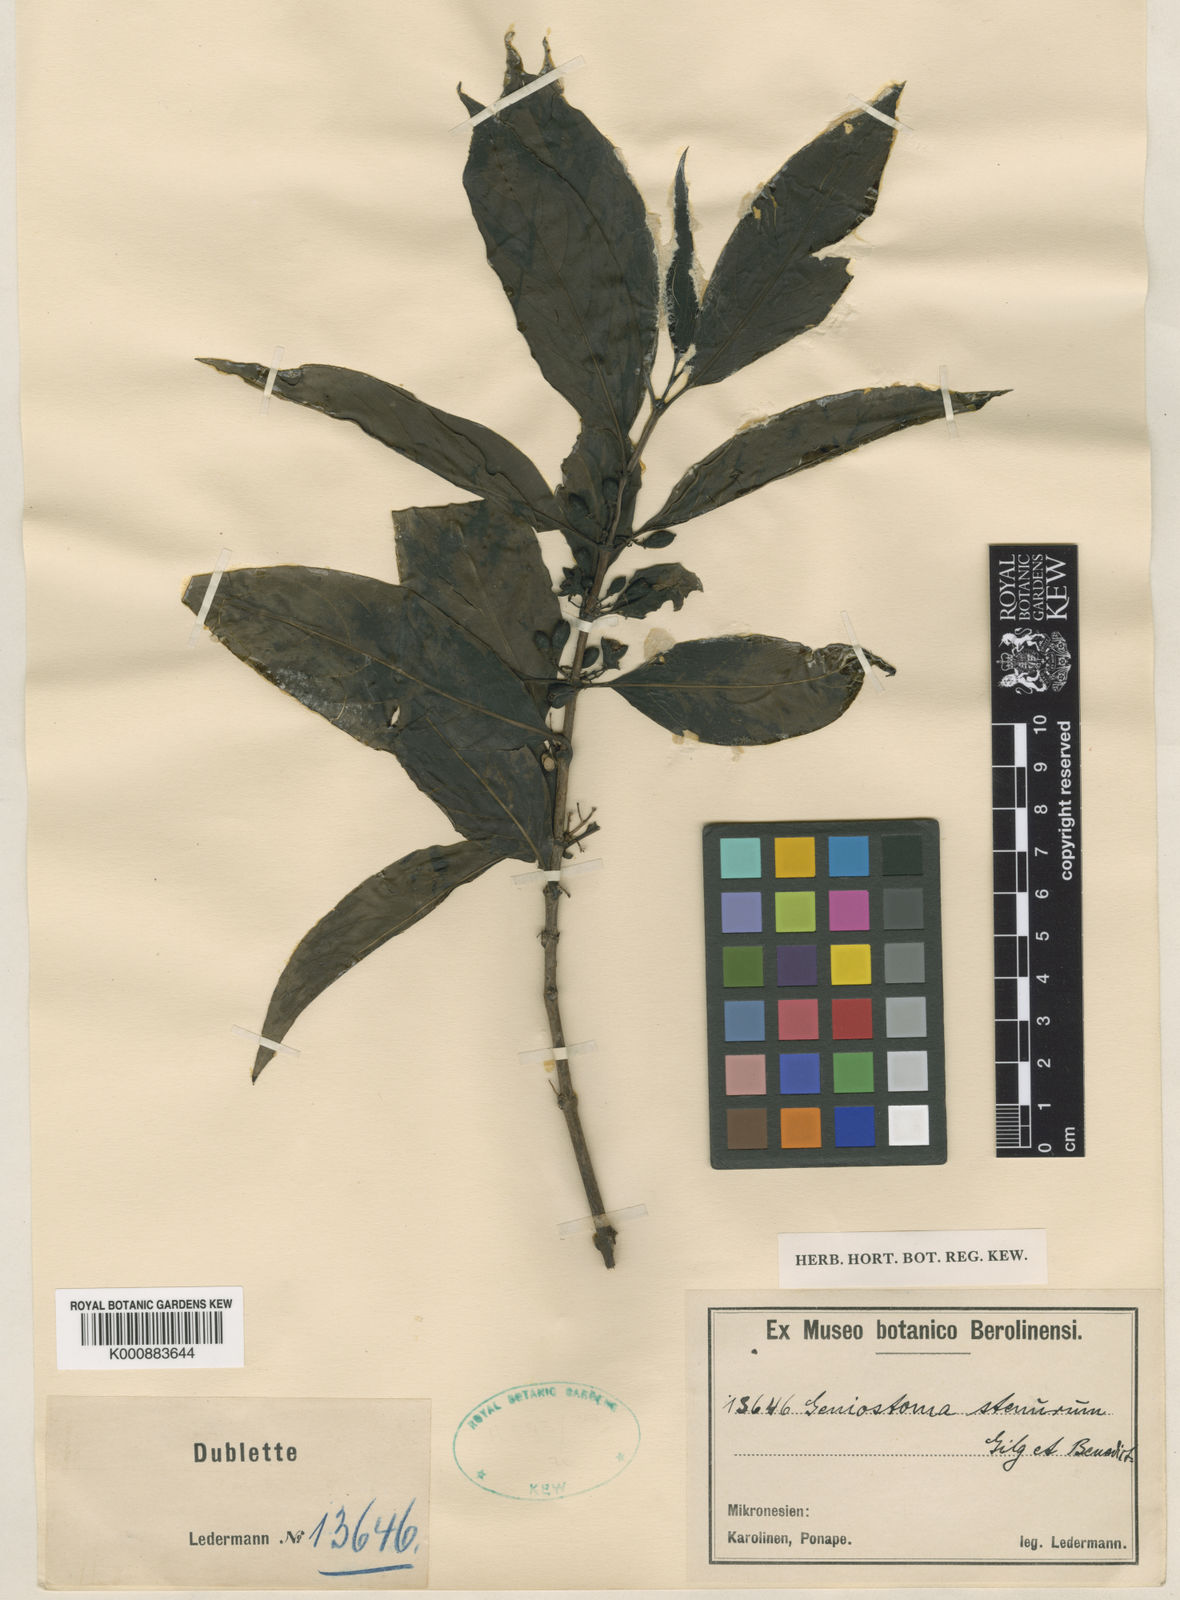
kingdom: Plantae
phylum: Tracheophyta
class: Magnoliopsida
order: Gentianales
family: Loganiaceae
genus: Geniostoma
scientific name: Geniostoma rupestre
